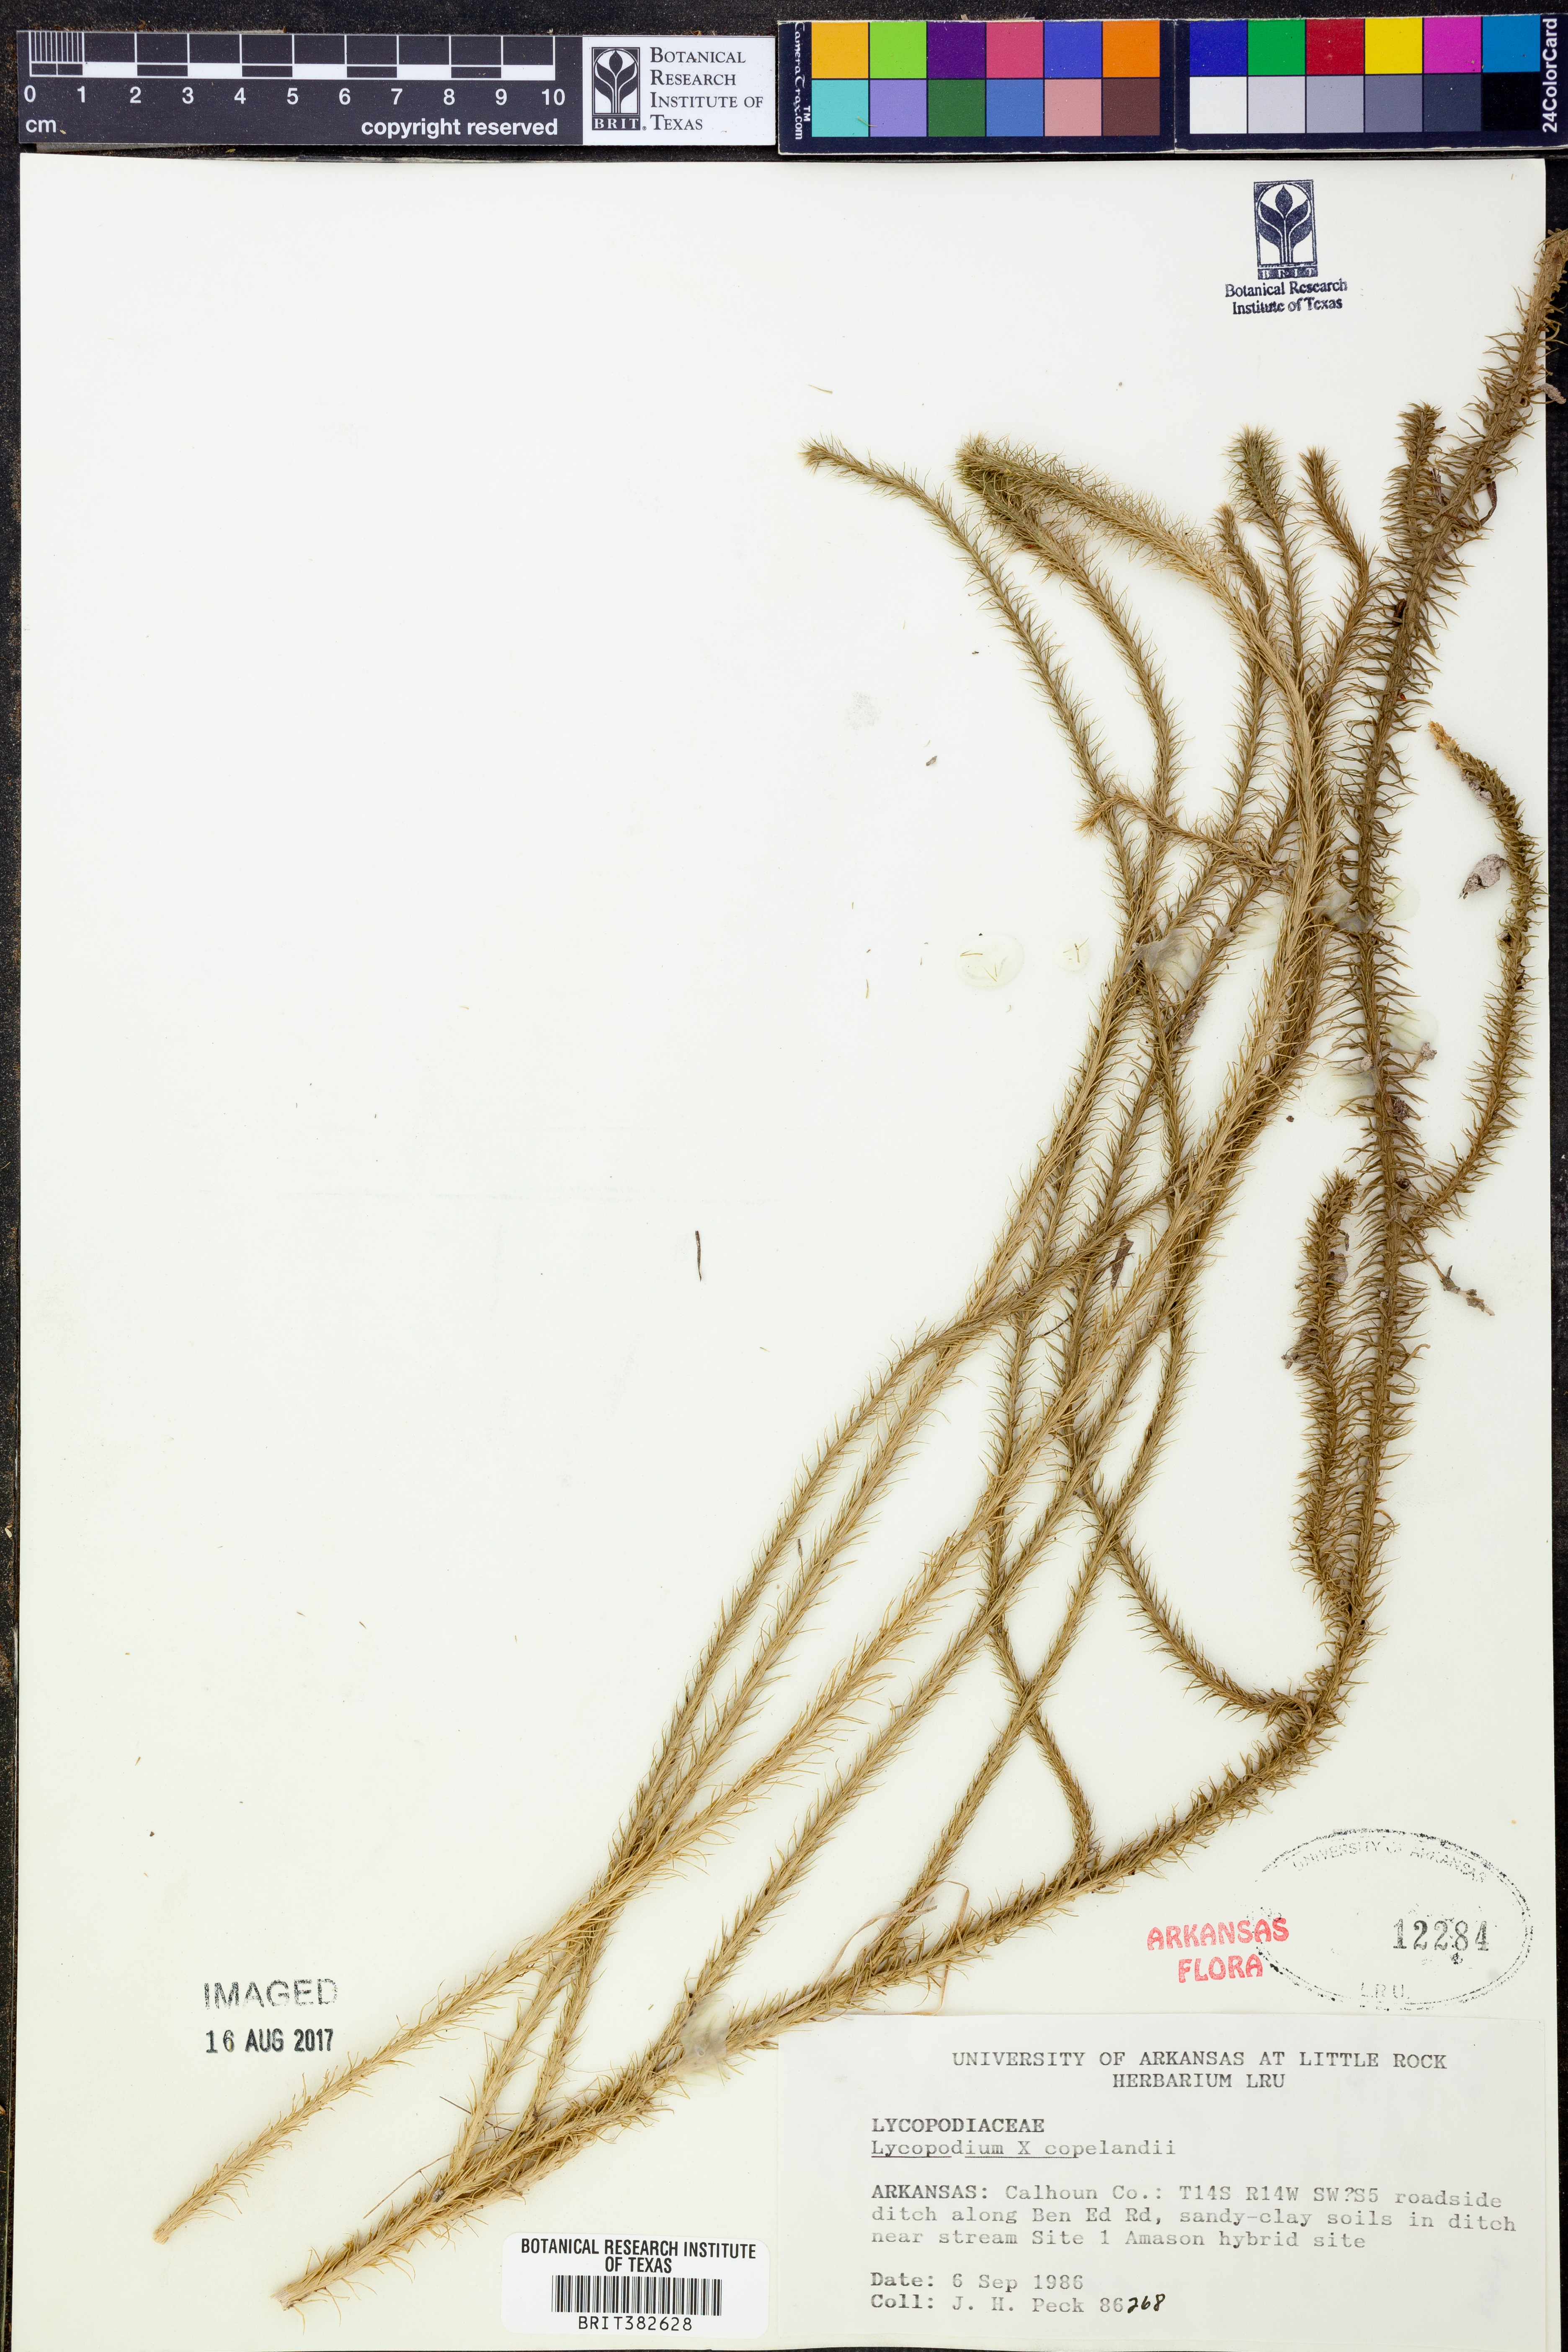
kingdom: Plantae
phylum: Tracheophyta
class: Lycopodiopsida
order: Lycopodiales
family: Lycopodiaceae
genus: Lycopodiella
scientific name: Lycopodiella copelandii
